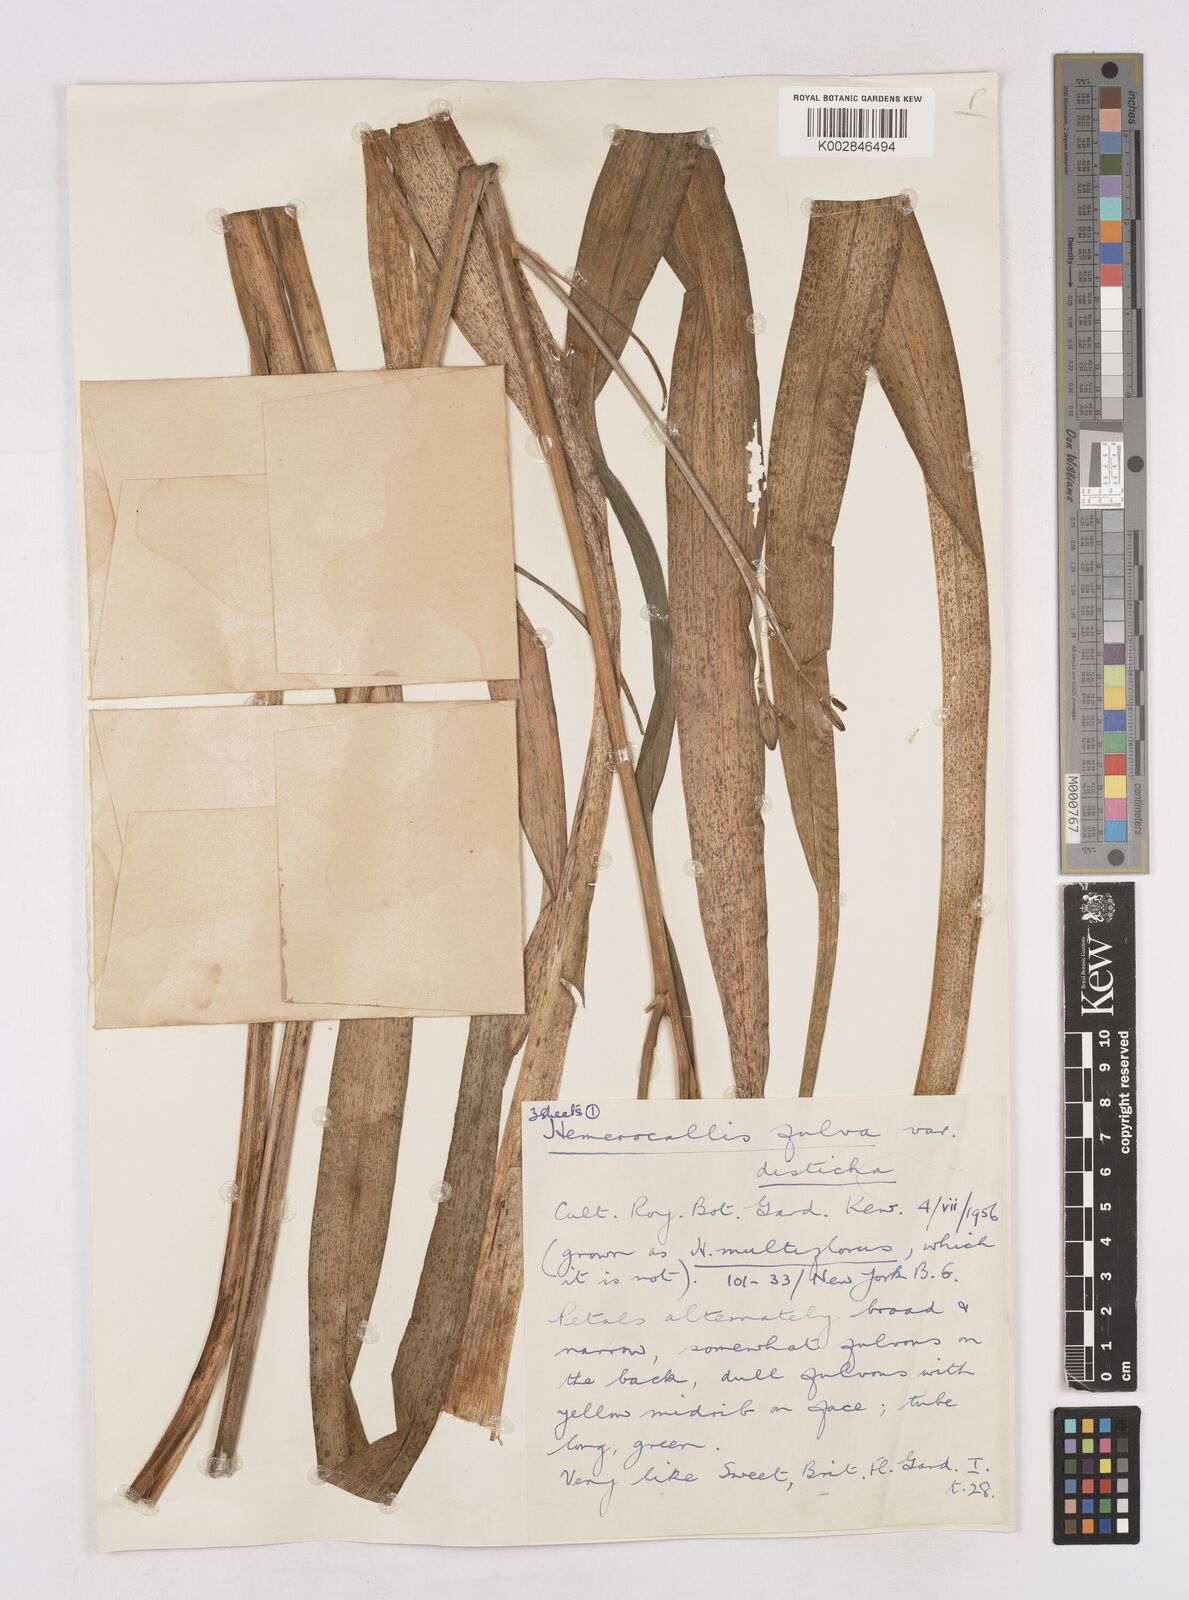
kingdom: Plantae
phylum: Tracheophyta
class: Liliopsida
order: Asparagales
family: Asphodelaceae
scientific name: Asphodelaceae
